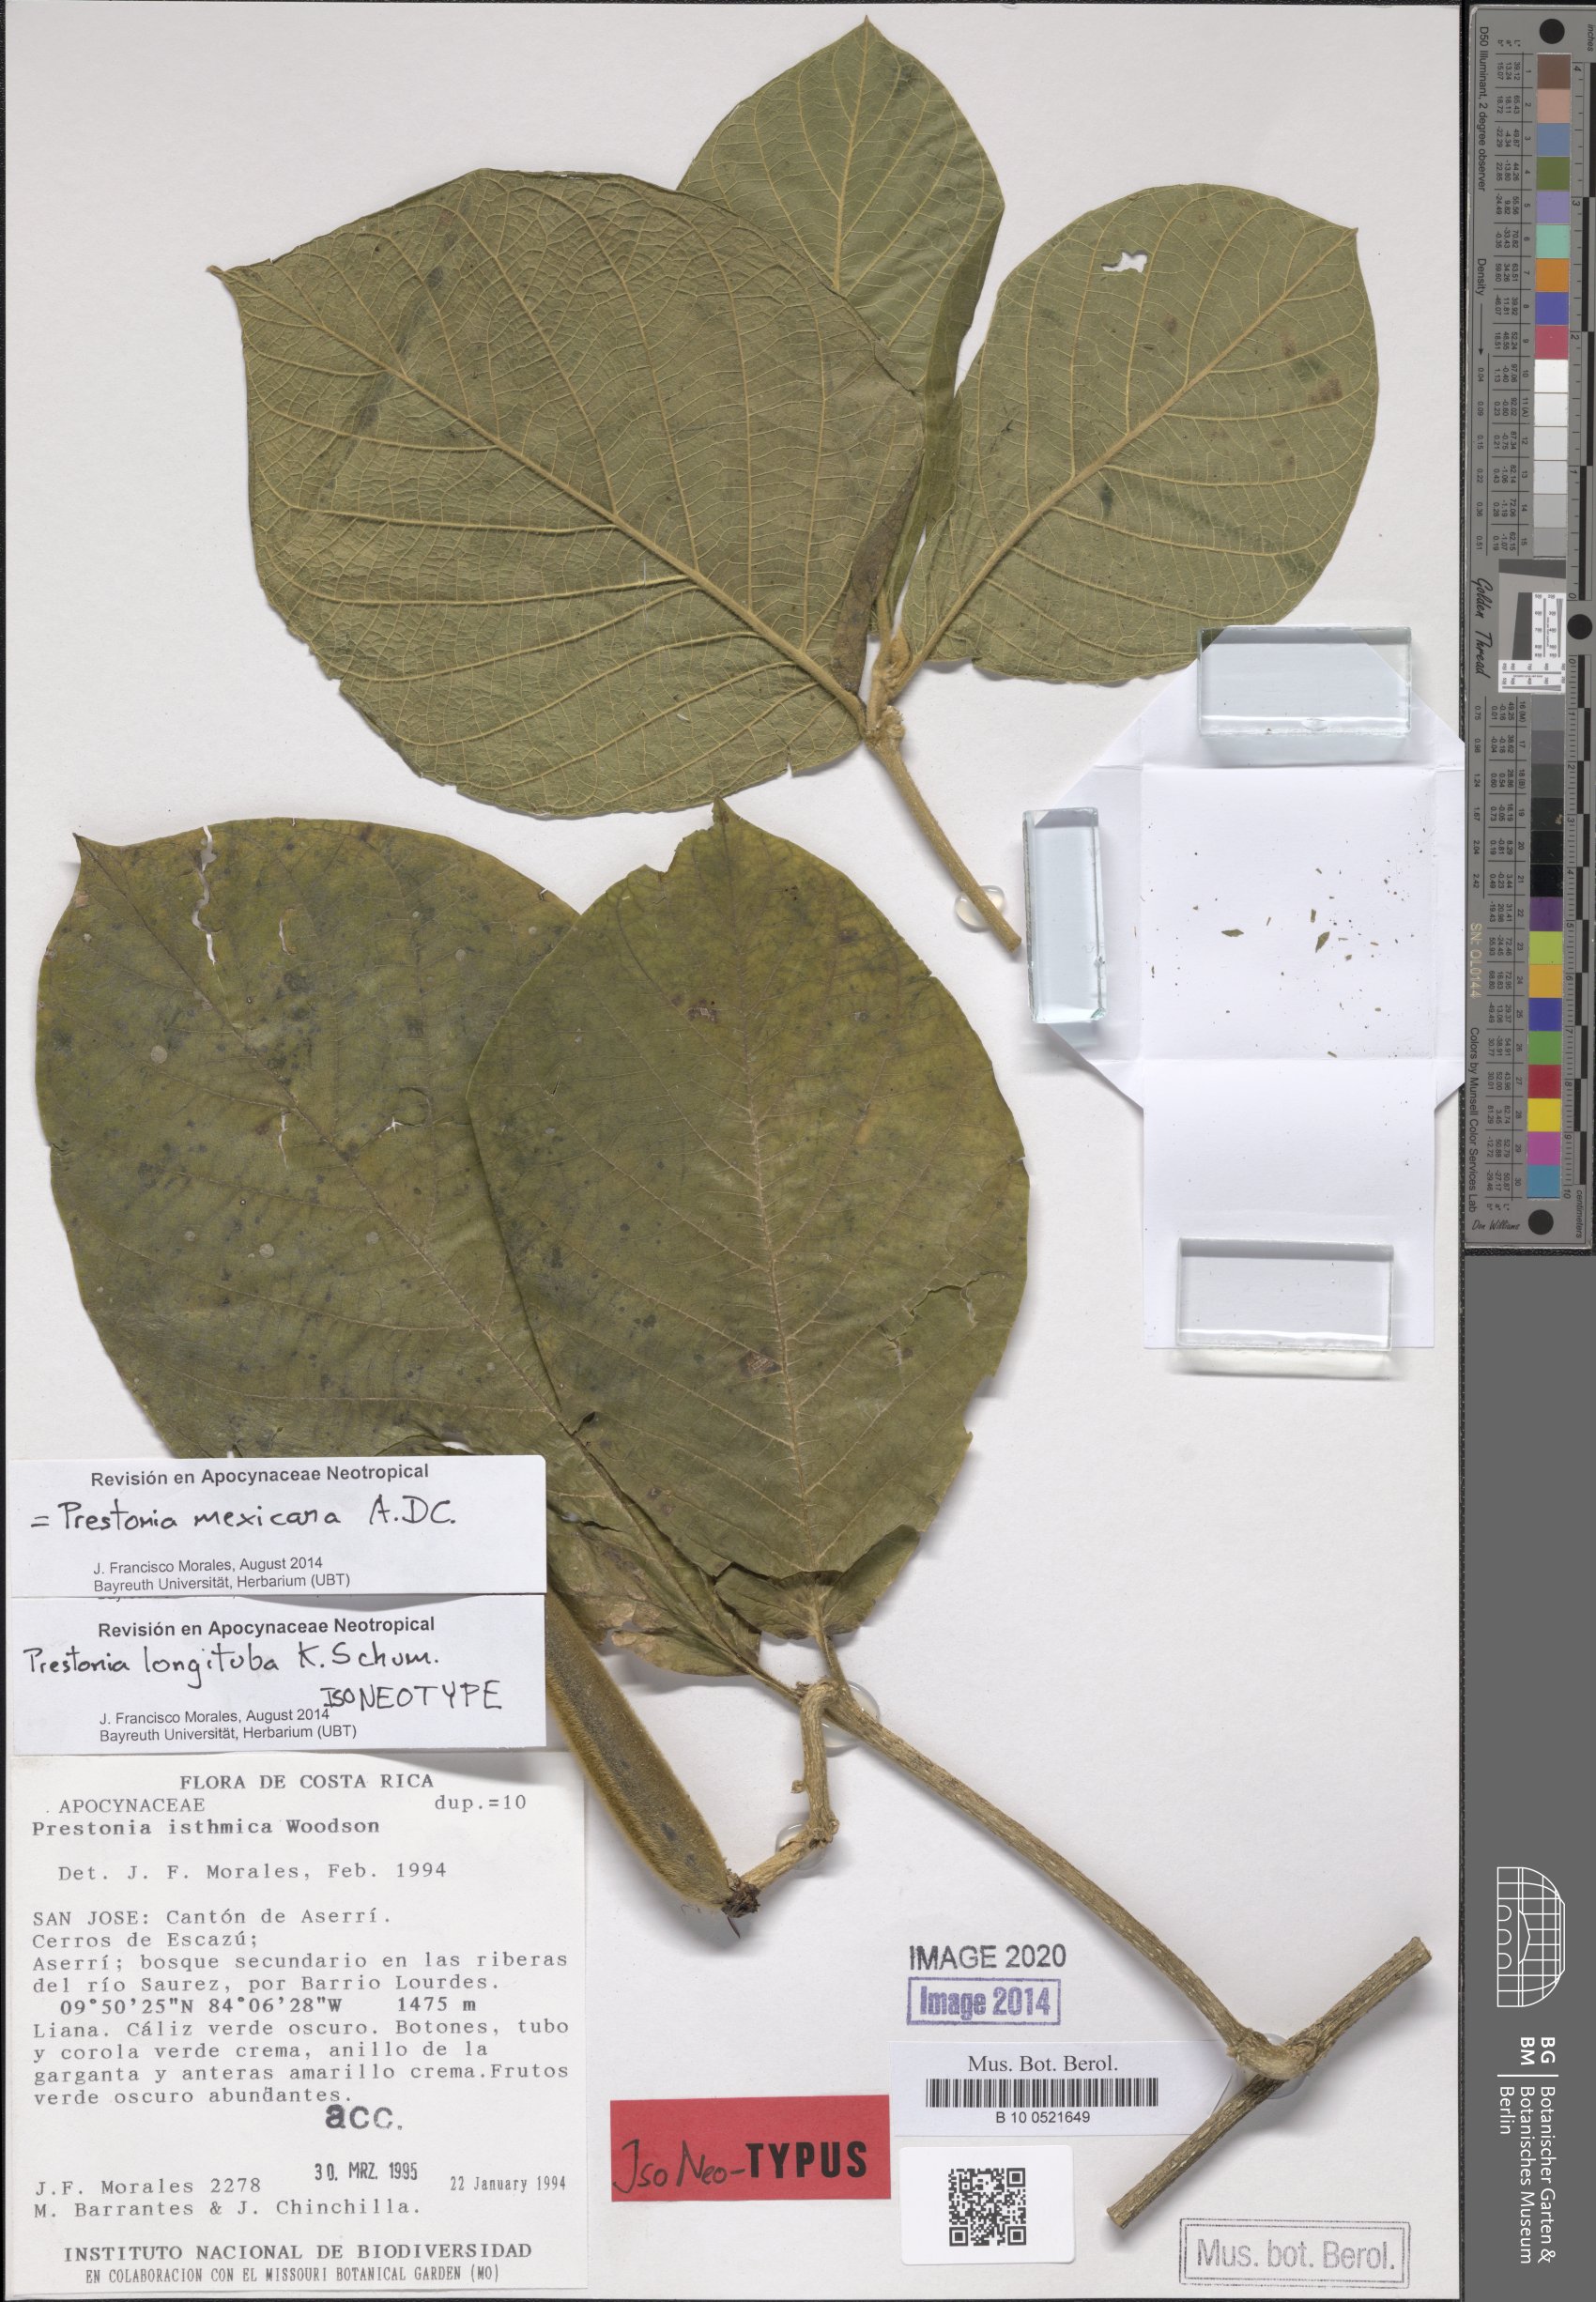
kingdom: Plantae
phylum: Tracheophyta
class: Magnoliopsida
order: Gentianales
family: Apocynaceae
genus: Prestonia
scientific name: Prestonia mexicana
